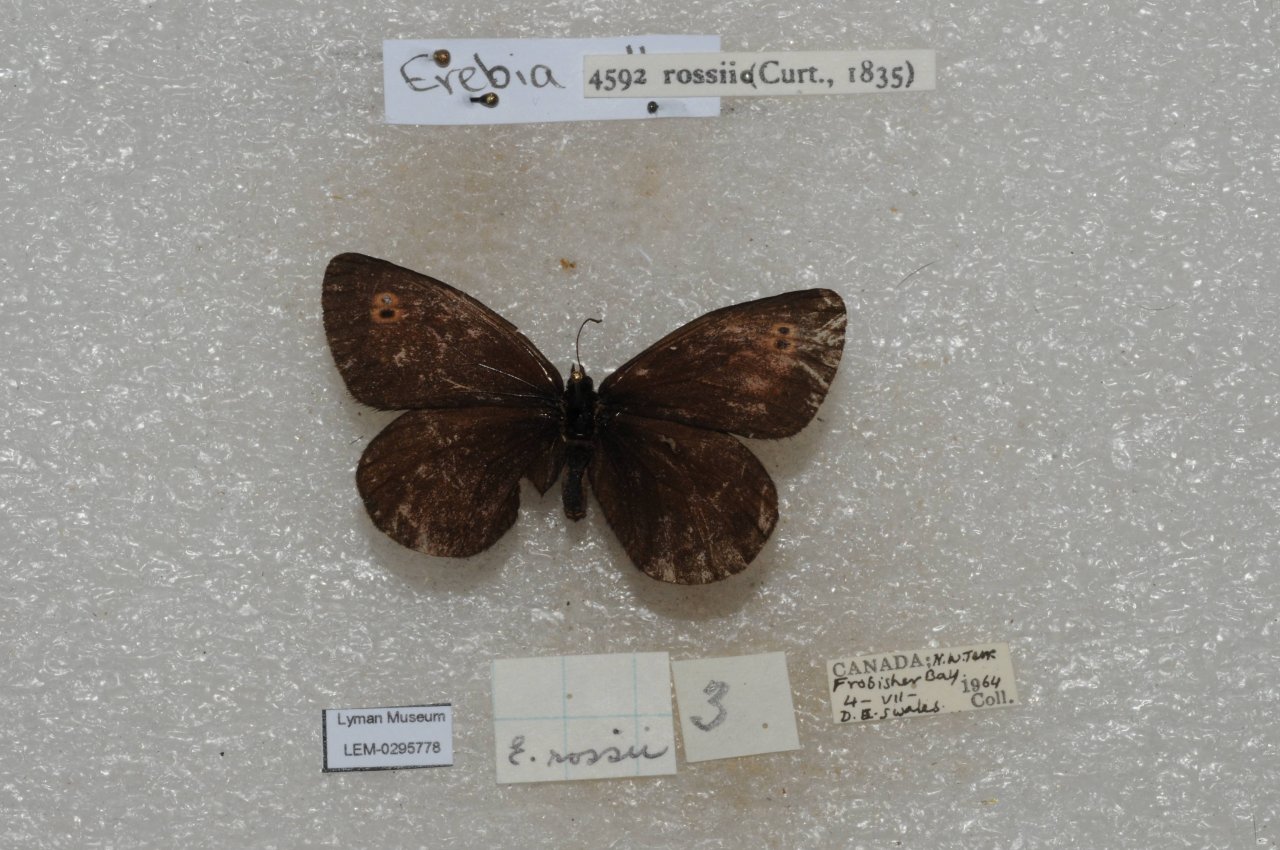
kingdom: Animalia
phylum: Arthropoda
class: Insecta
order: Lepidoptera
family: Nymphalidae
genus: Erebia
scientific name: Erebia rossii
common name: Ross's Alpine
